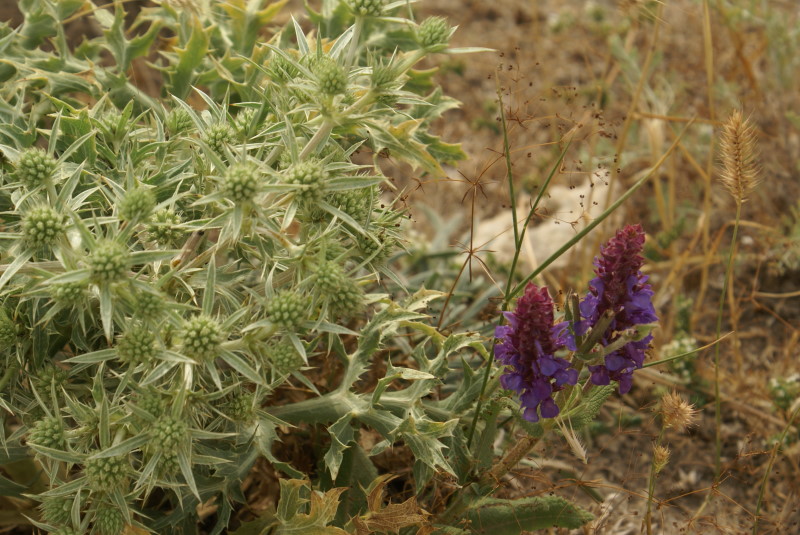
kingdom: Plantae
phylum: Tracheophyta
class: Magnoliopsida
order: Apiales
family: Apiaceae
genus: Eryngium
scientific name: Eryngium campestre
